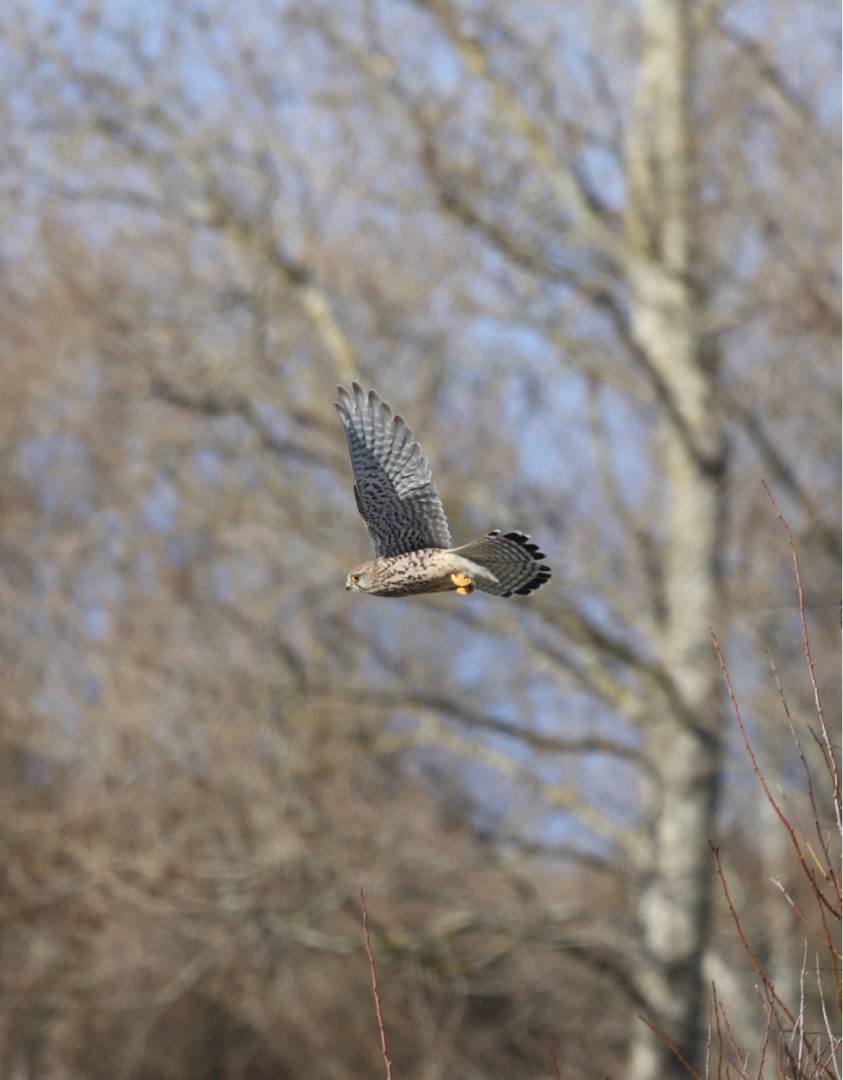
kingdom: Animalia
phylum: Chordata
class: Aves
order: Falconiformes
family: Falconidae
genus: Falco
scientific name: Falco tinnunculus
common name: Tårnfalk
